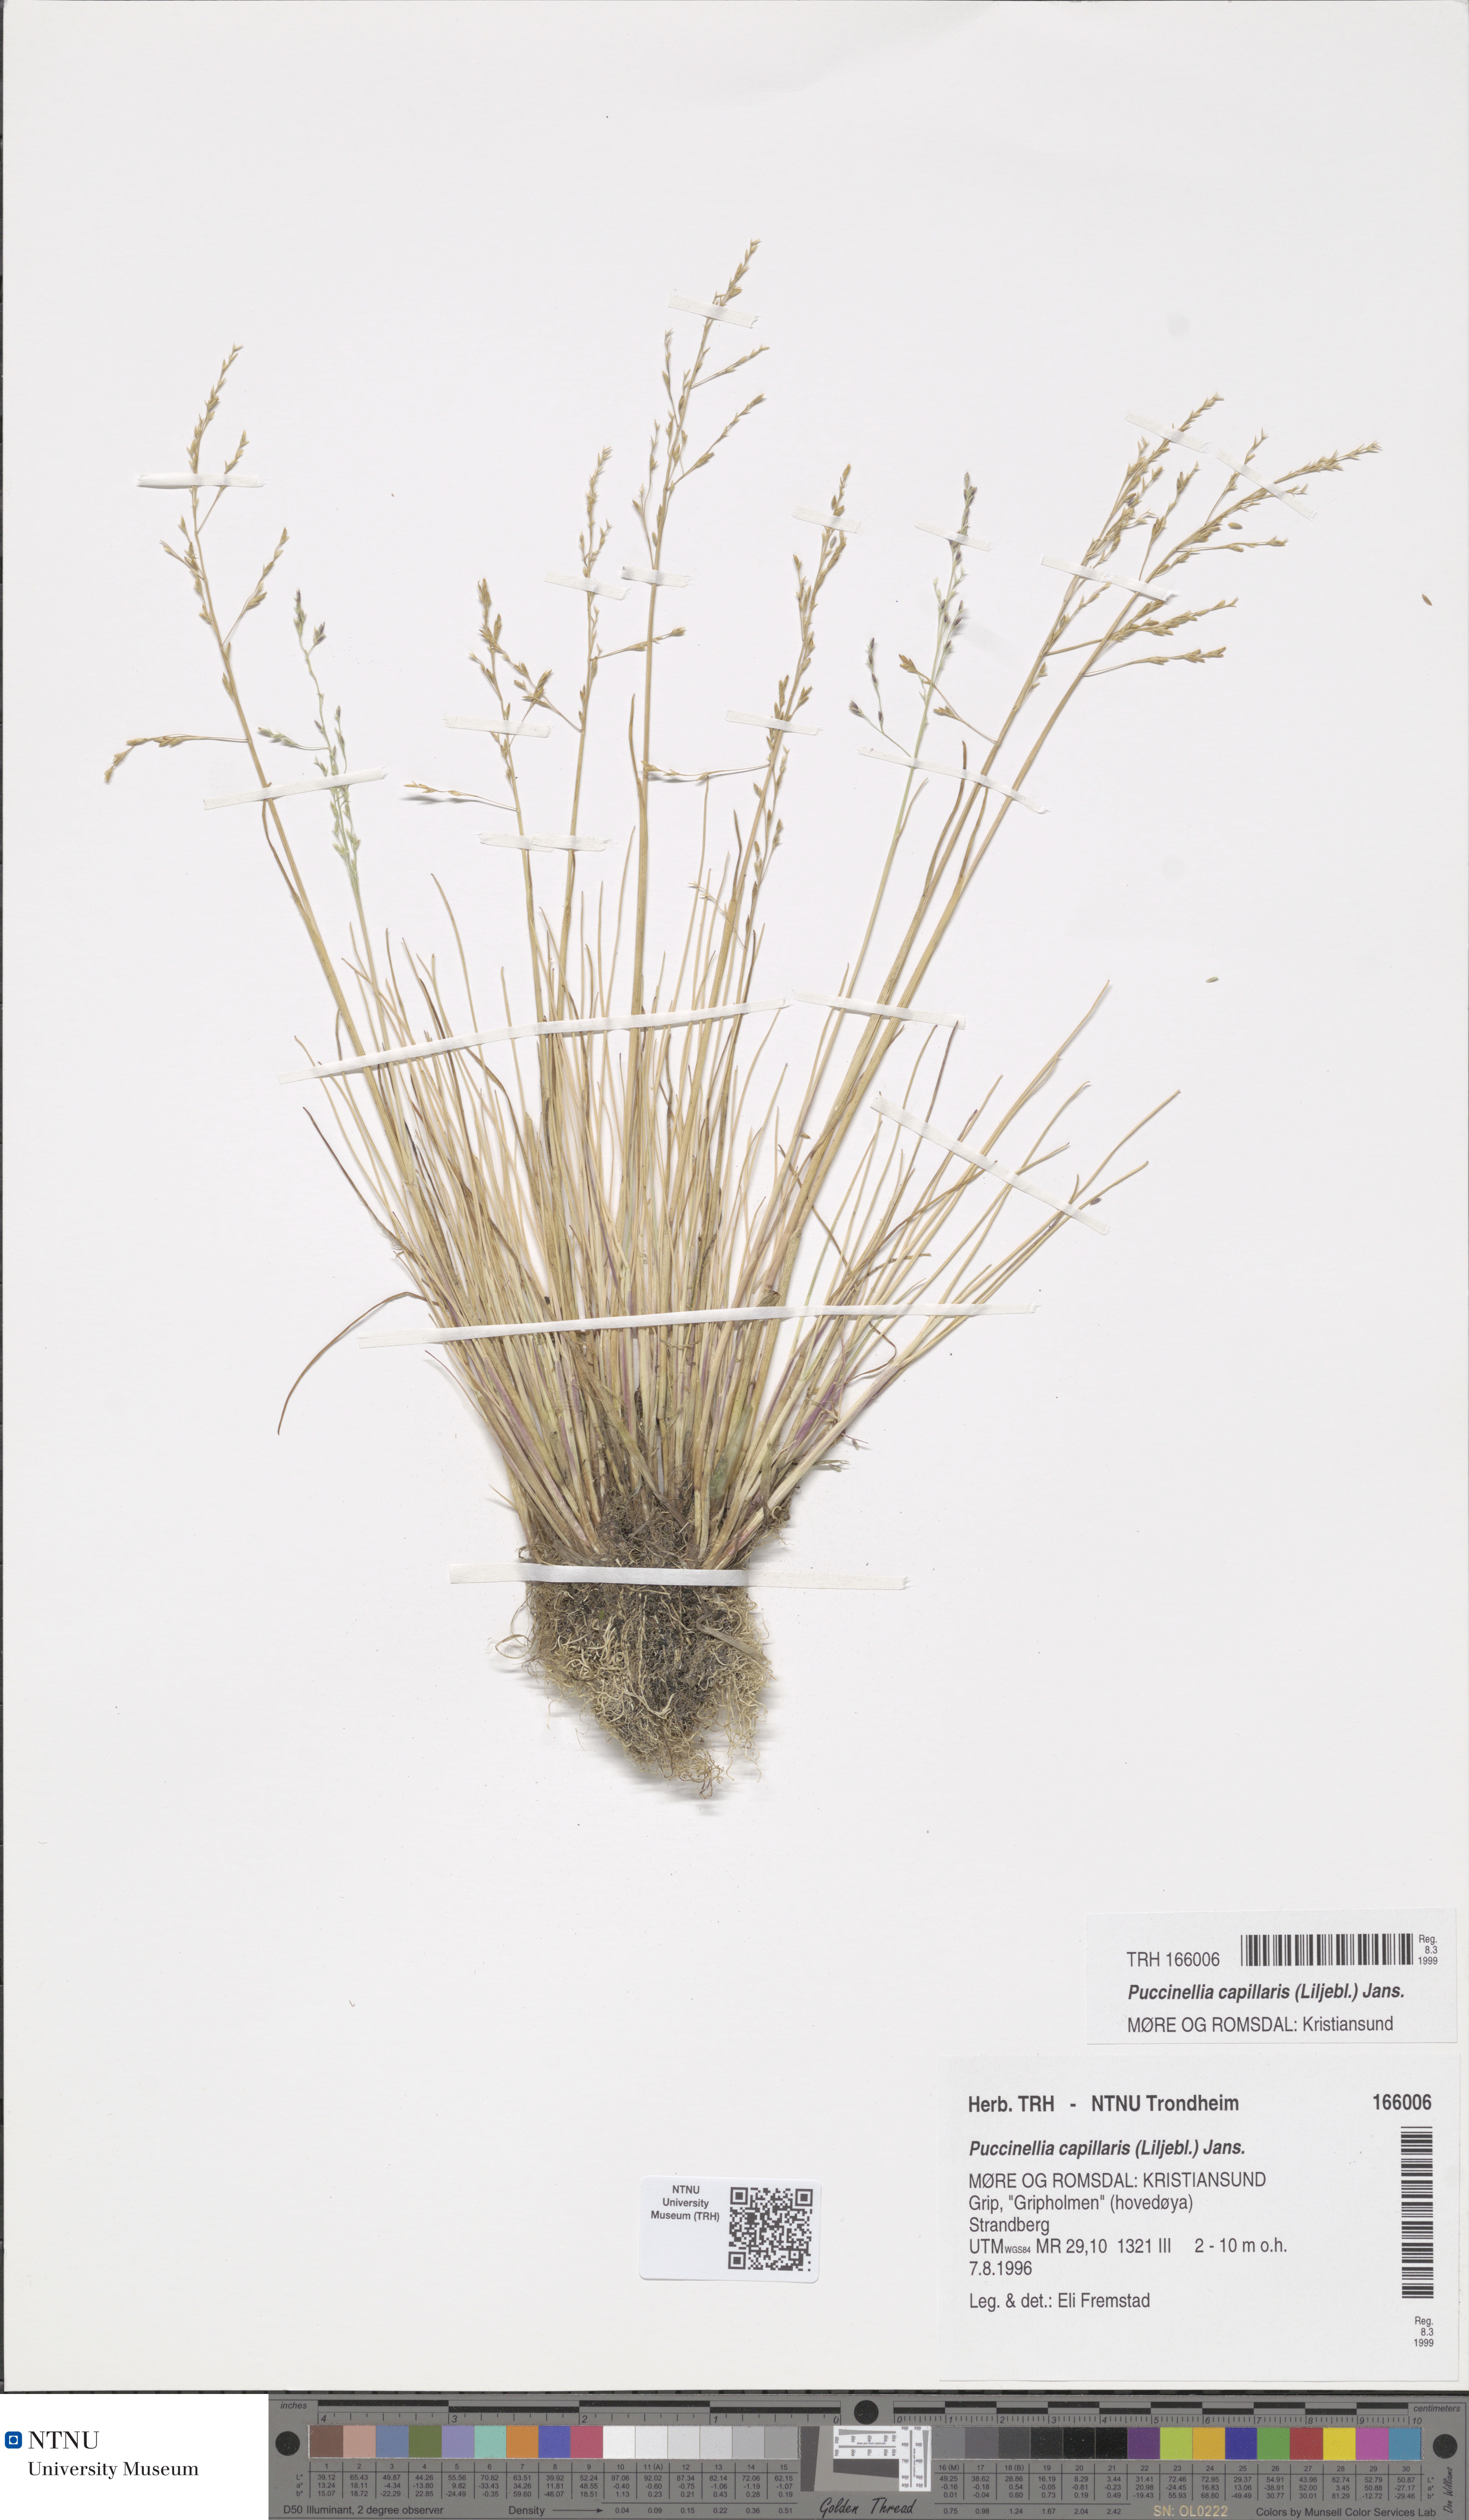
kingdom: Plantae
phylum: Tracheophyta
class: Liliopsida
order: Poales
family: Poaceae
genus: Puccinellia
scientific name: Puccinellia distans
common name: Weeping alkaligrass
